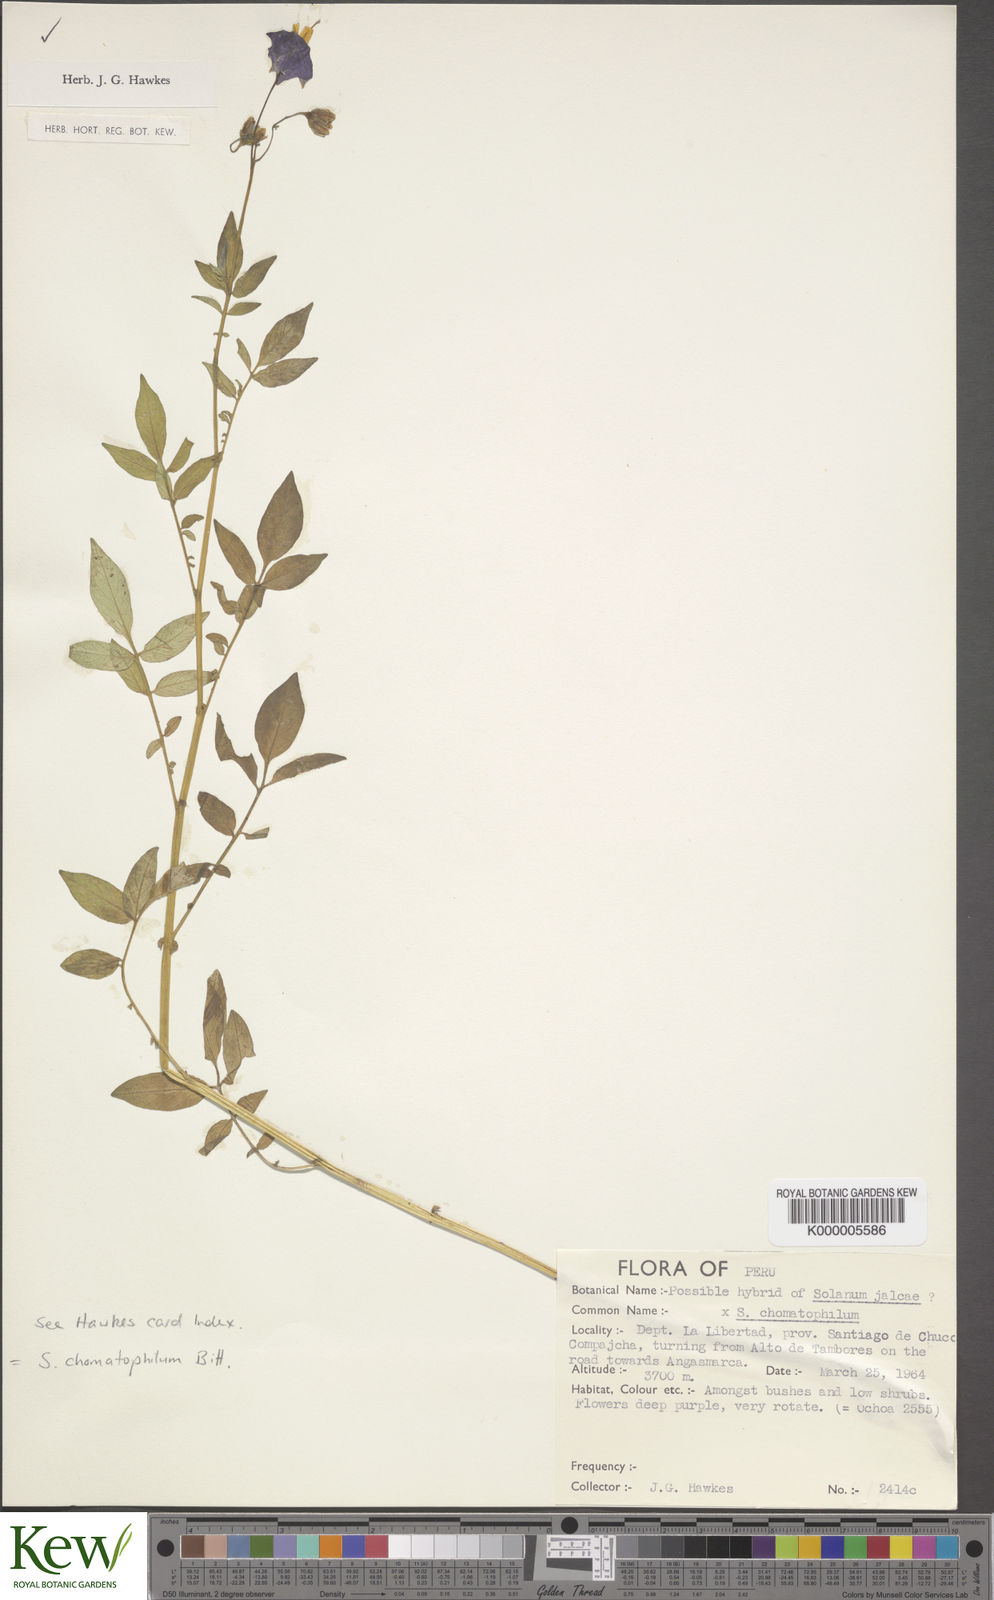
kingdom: Plantae
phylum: Tracheophyta
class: Magnoliopsida
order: Solanales
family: Solanaceae
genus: Solanum
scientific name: Solanum chomatophilum
